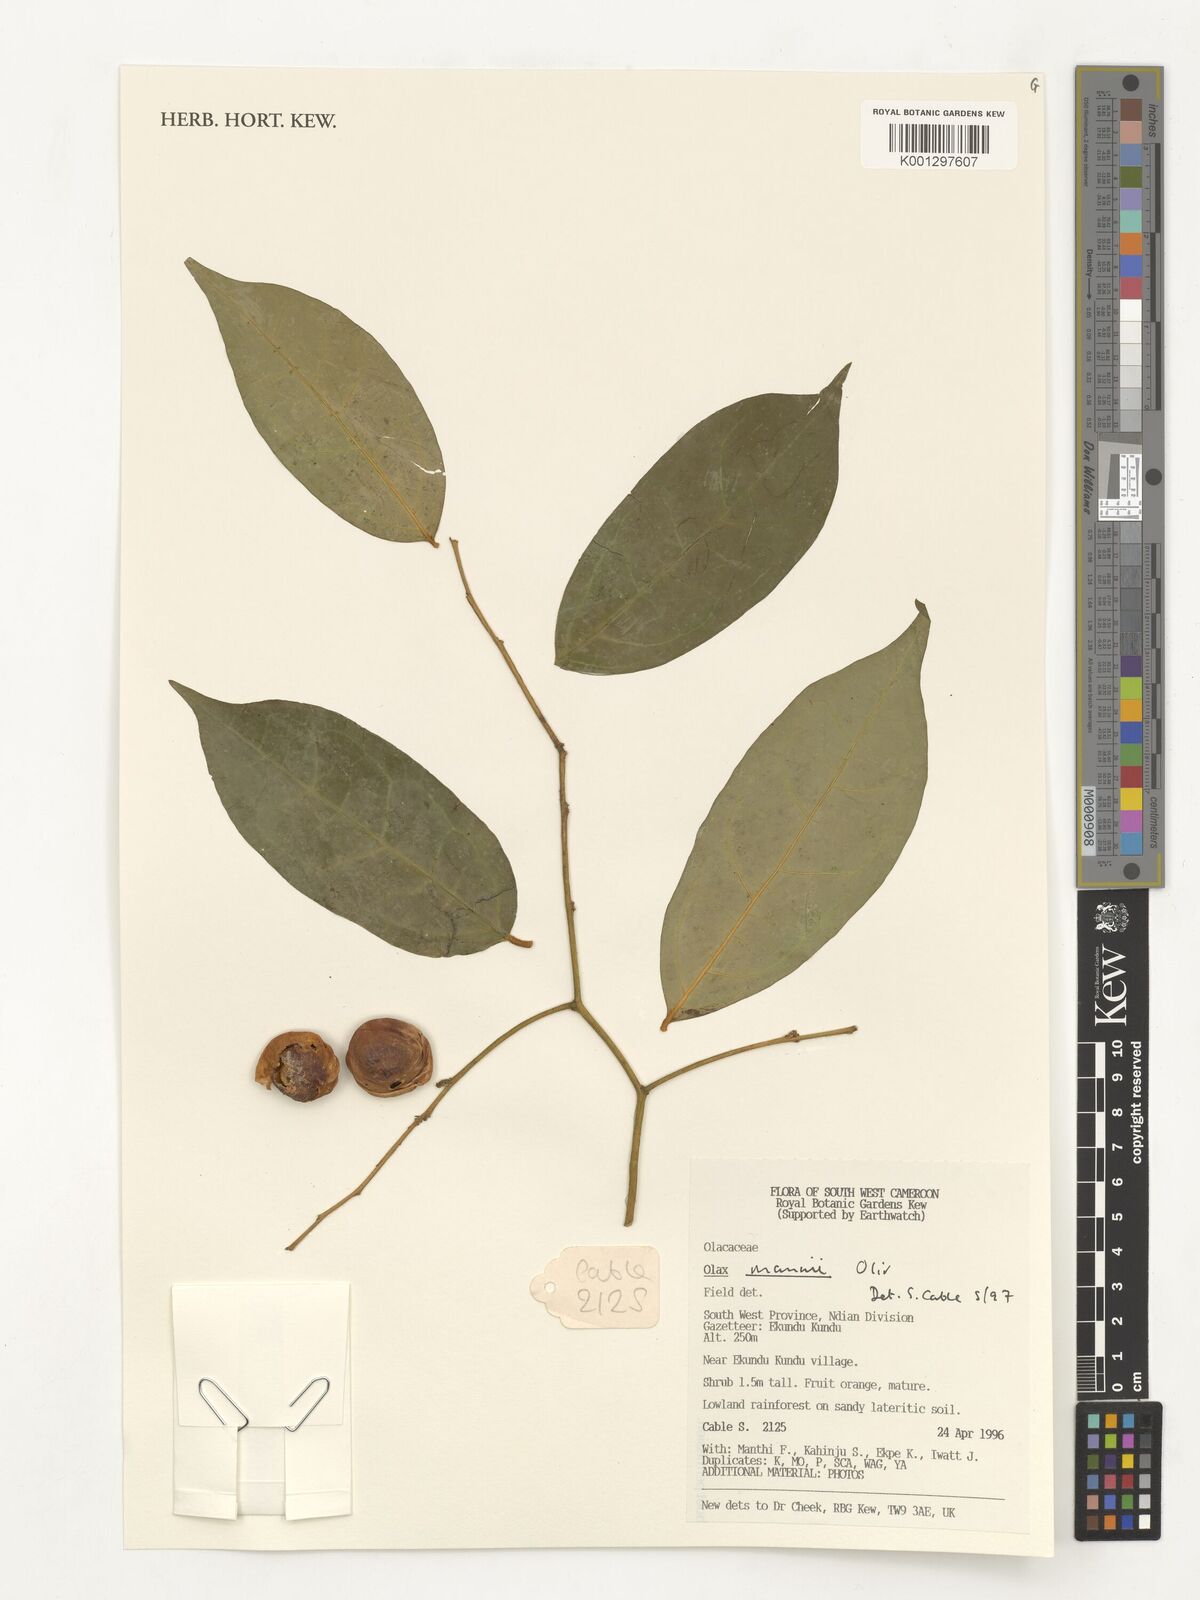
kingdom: Plantae
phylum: Tracheophyta
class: Magnoliopsida
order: Santalales
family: Olacaceae
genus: Olax
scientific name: Olax mannii
